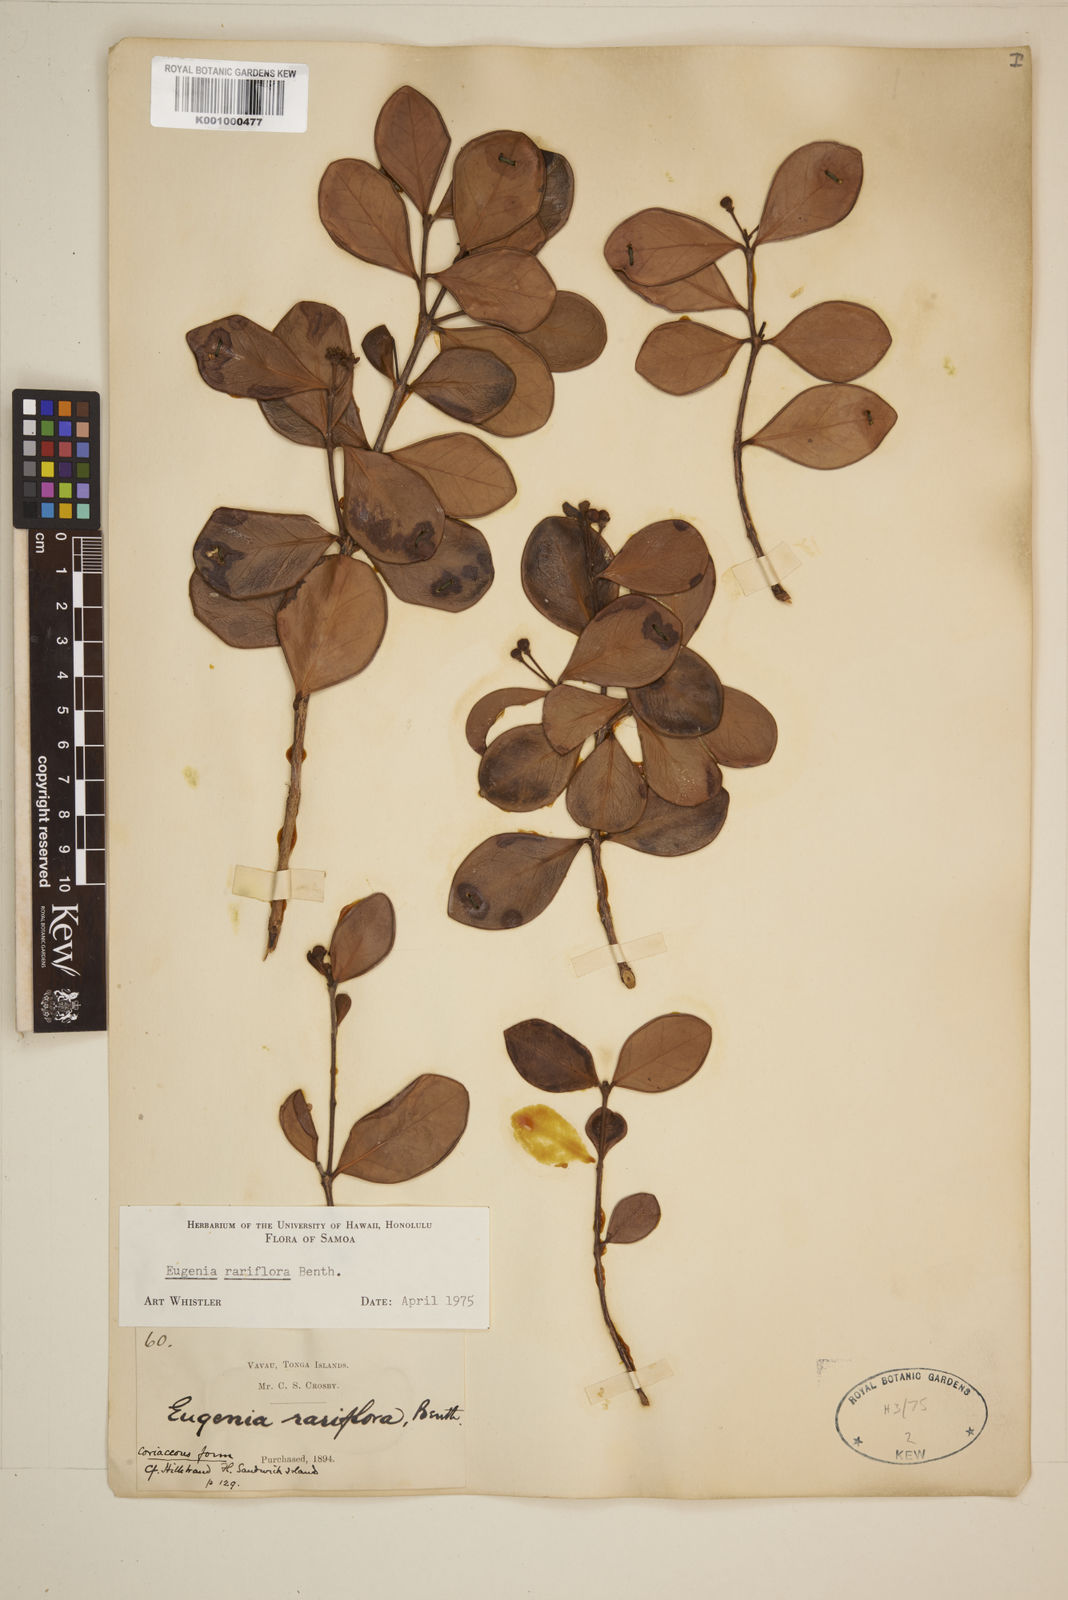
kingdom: Plantae
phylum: Tracheophyta
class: Magnoliopsida
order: Myrtales
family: Myrtaceae
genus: Eugenia
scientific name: Eugenia reinwardtiana
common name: Cedar bay-cherry
